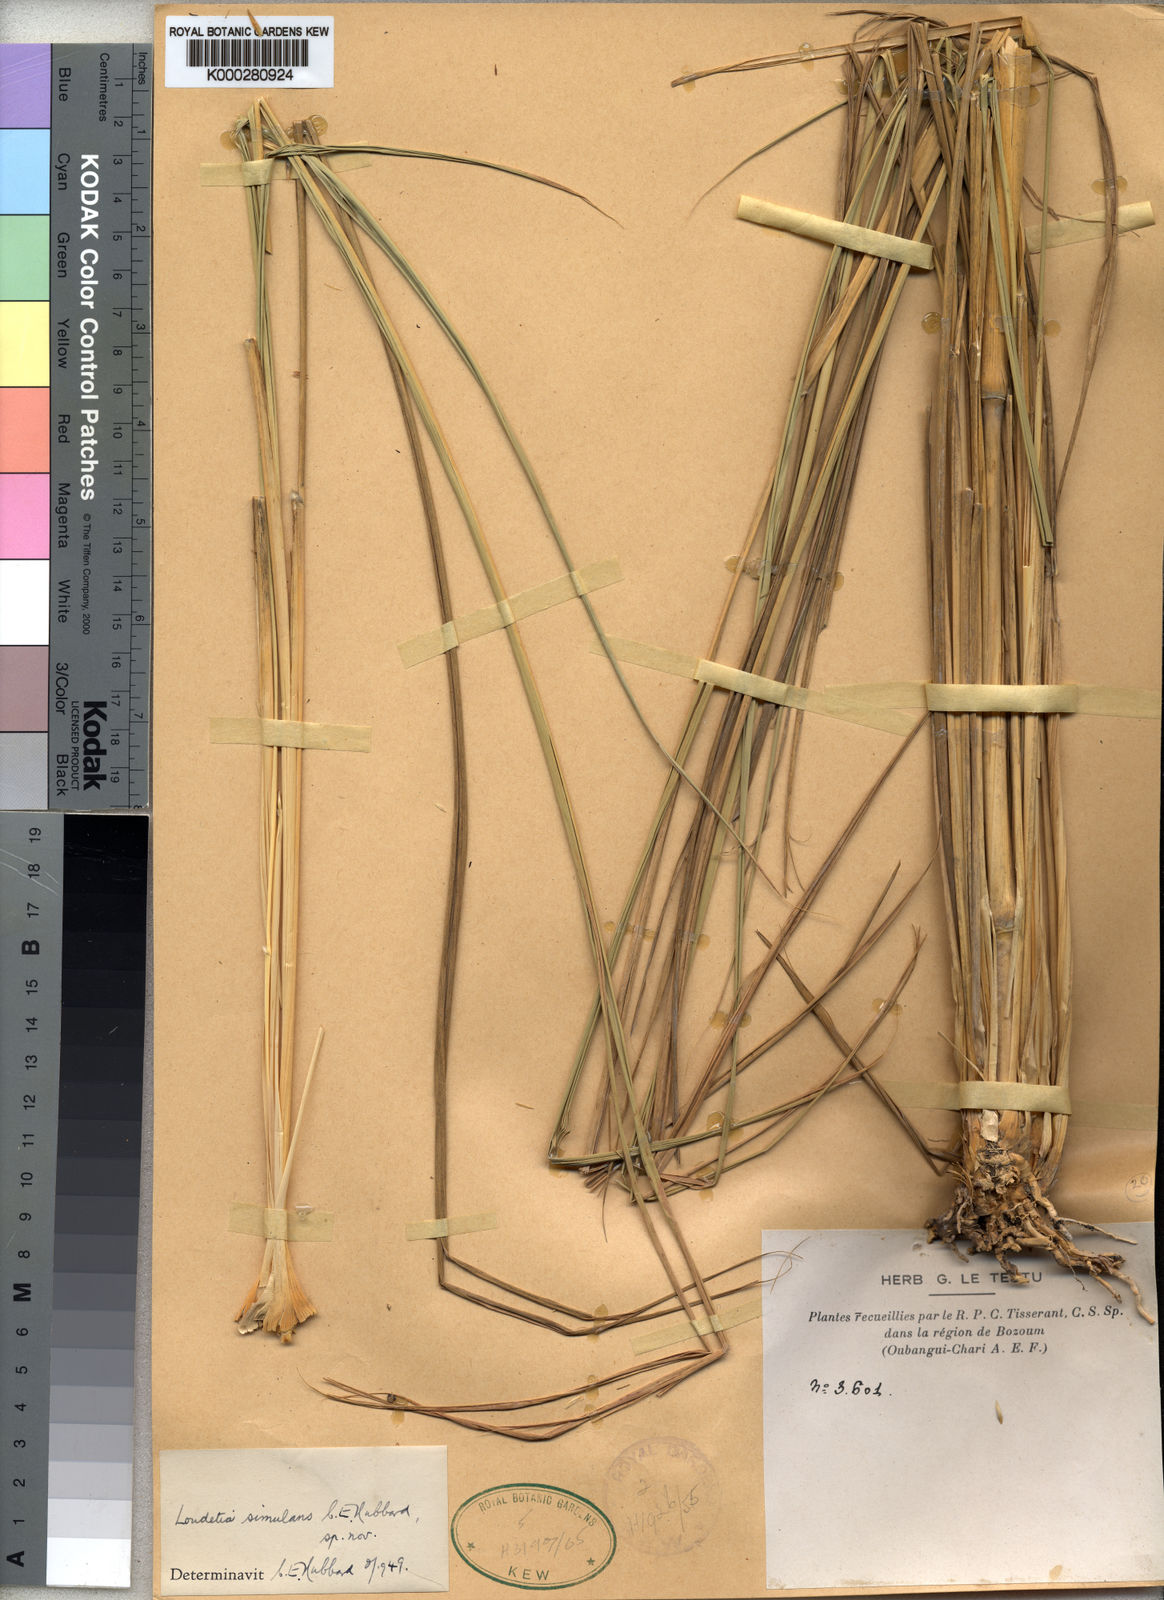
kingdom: Plantae
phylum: Tracheophyta
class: Liliopsida
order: Poales
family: Poaceae
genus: Danthoniopsis
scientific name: Danthoniopsis simulans
